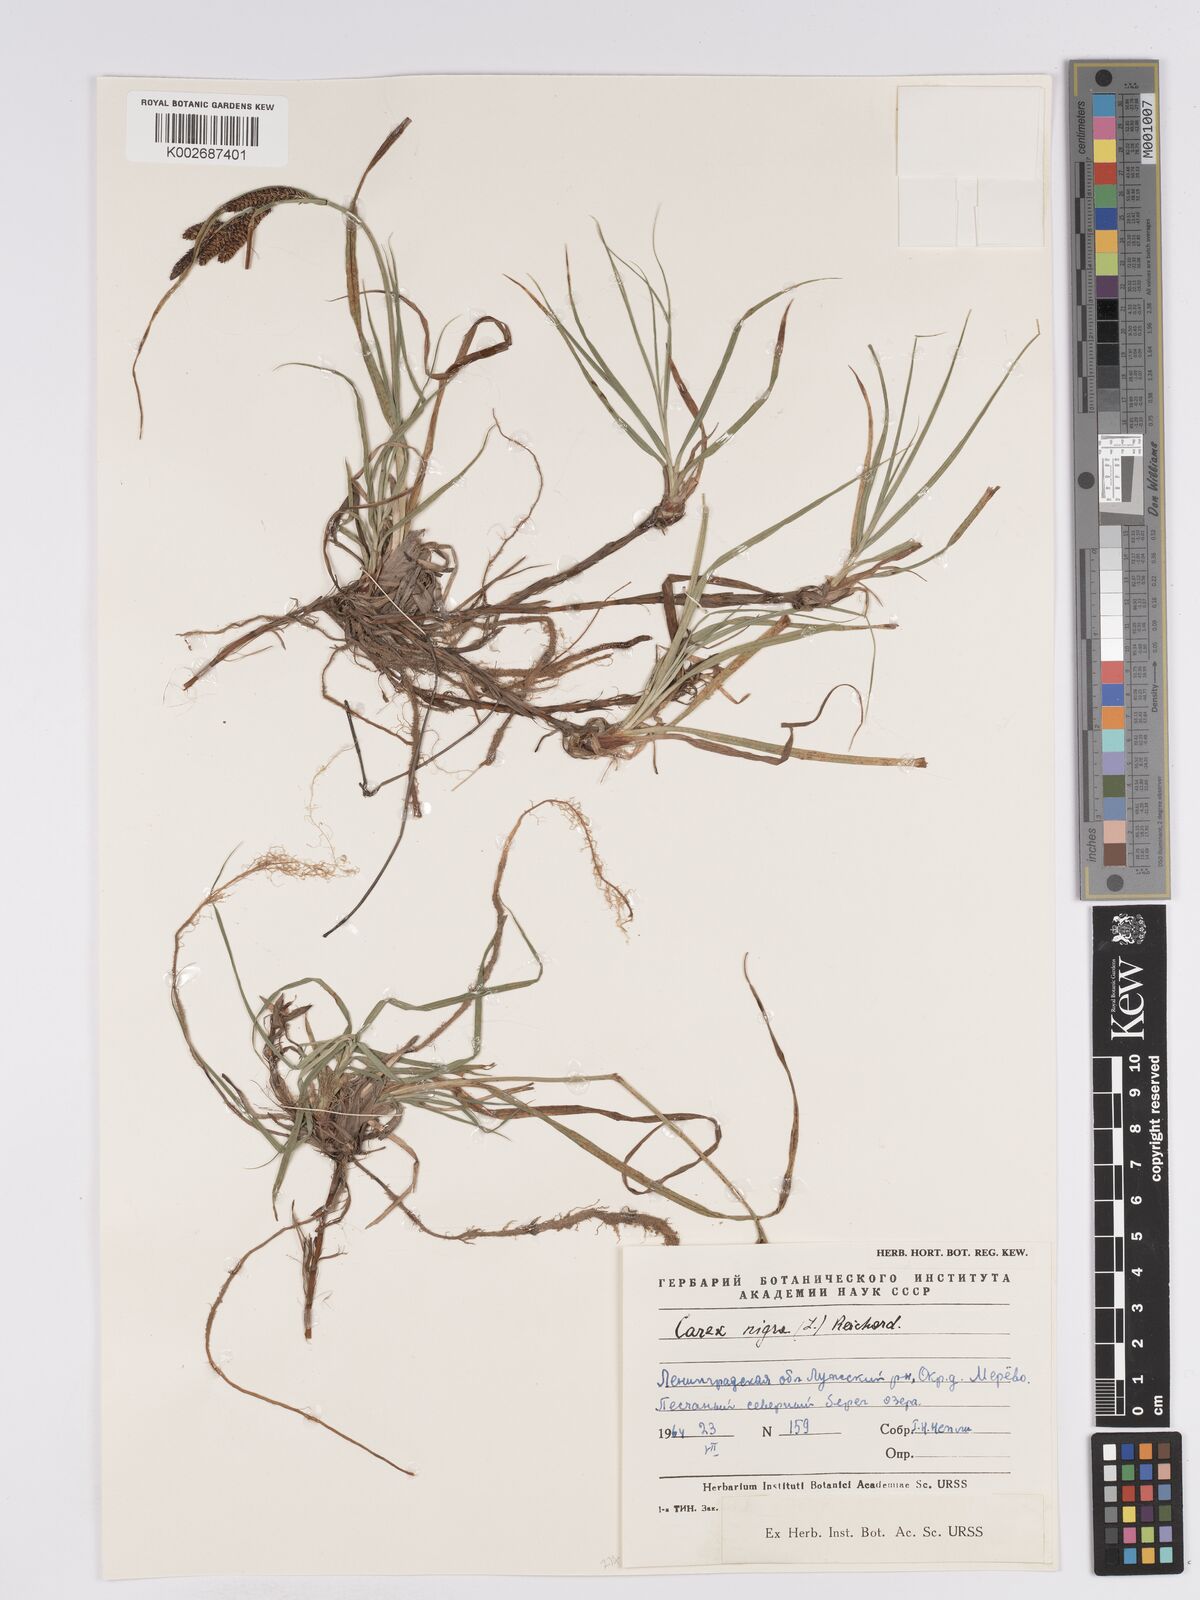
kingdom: Plantae
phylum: Tracheophyta
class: Liliopsida
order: Poales
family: Cyperaceae
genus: Carex
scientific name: Carex nigra
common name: Common sedge
